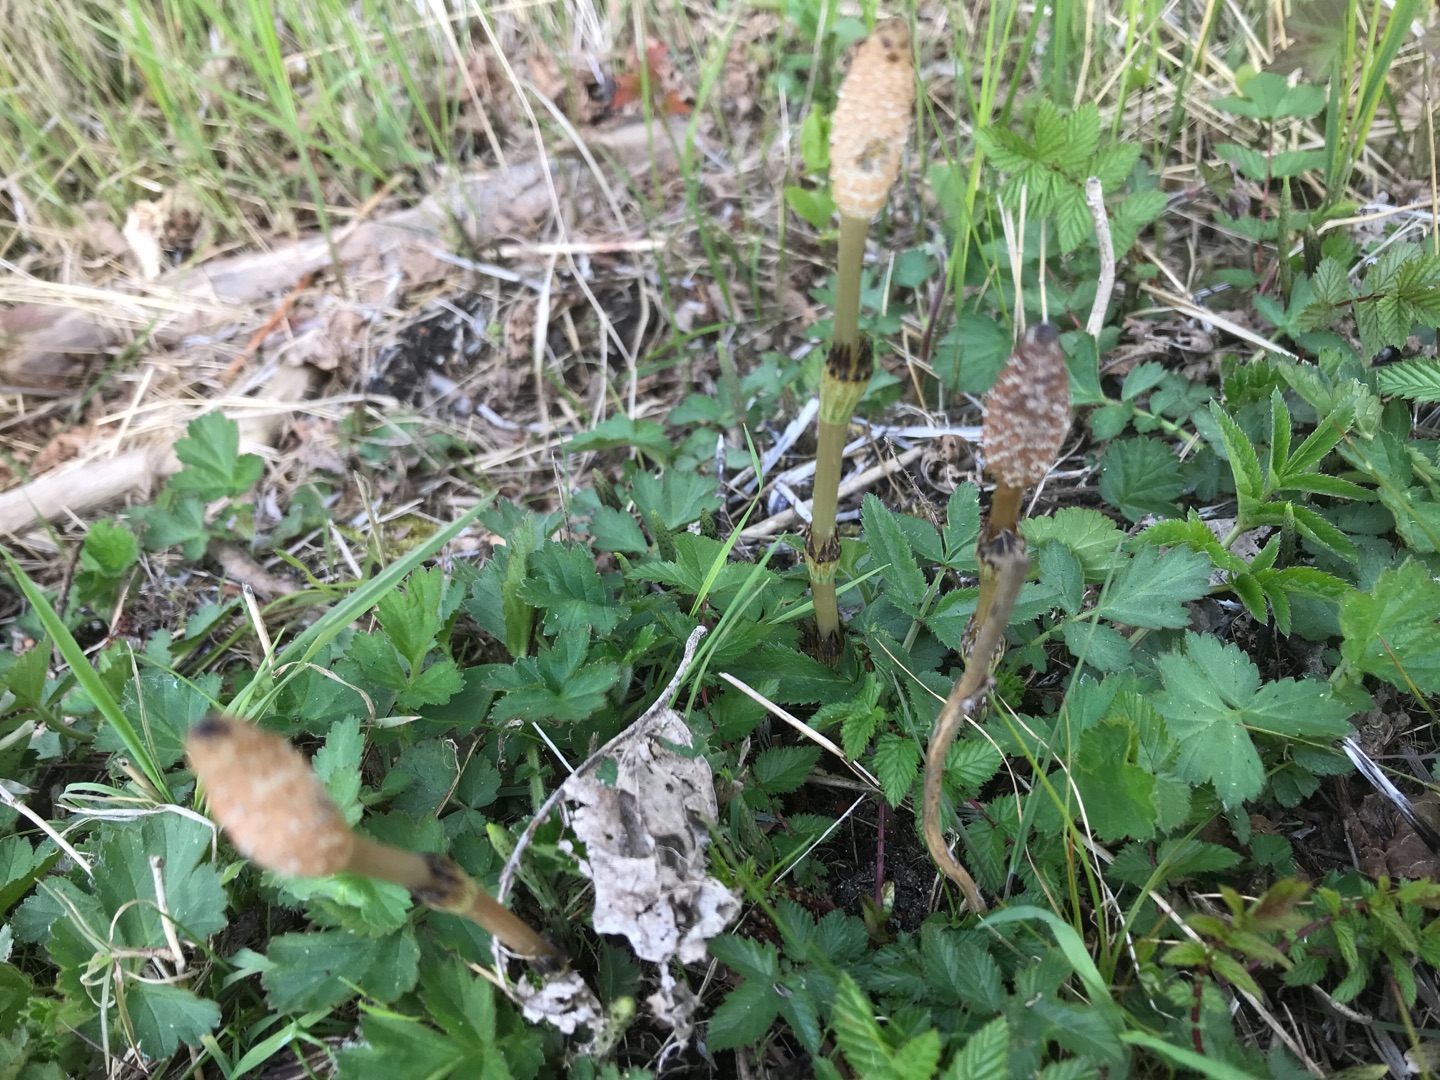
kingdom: Plantae
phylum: Tracheophyta
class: Polypodiopsida
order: Equisetales
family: Equisetaceae
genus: Equisetum
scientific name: Equisetum arvense
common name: Ager-padderok
